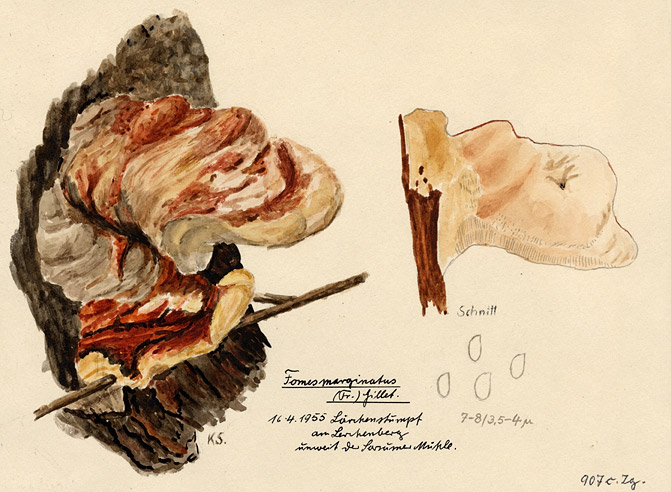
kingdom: Plantae
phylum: Tracheophyta
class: Pinopsida
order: Pinales
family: Pinaceae
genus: Larix
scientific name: Larix
